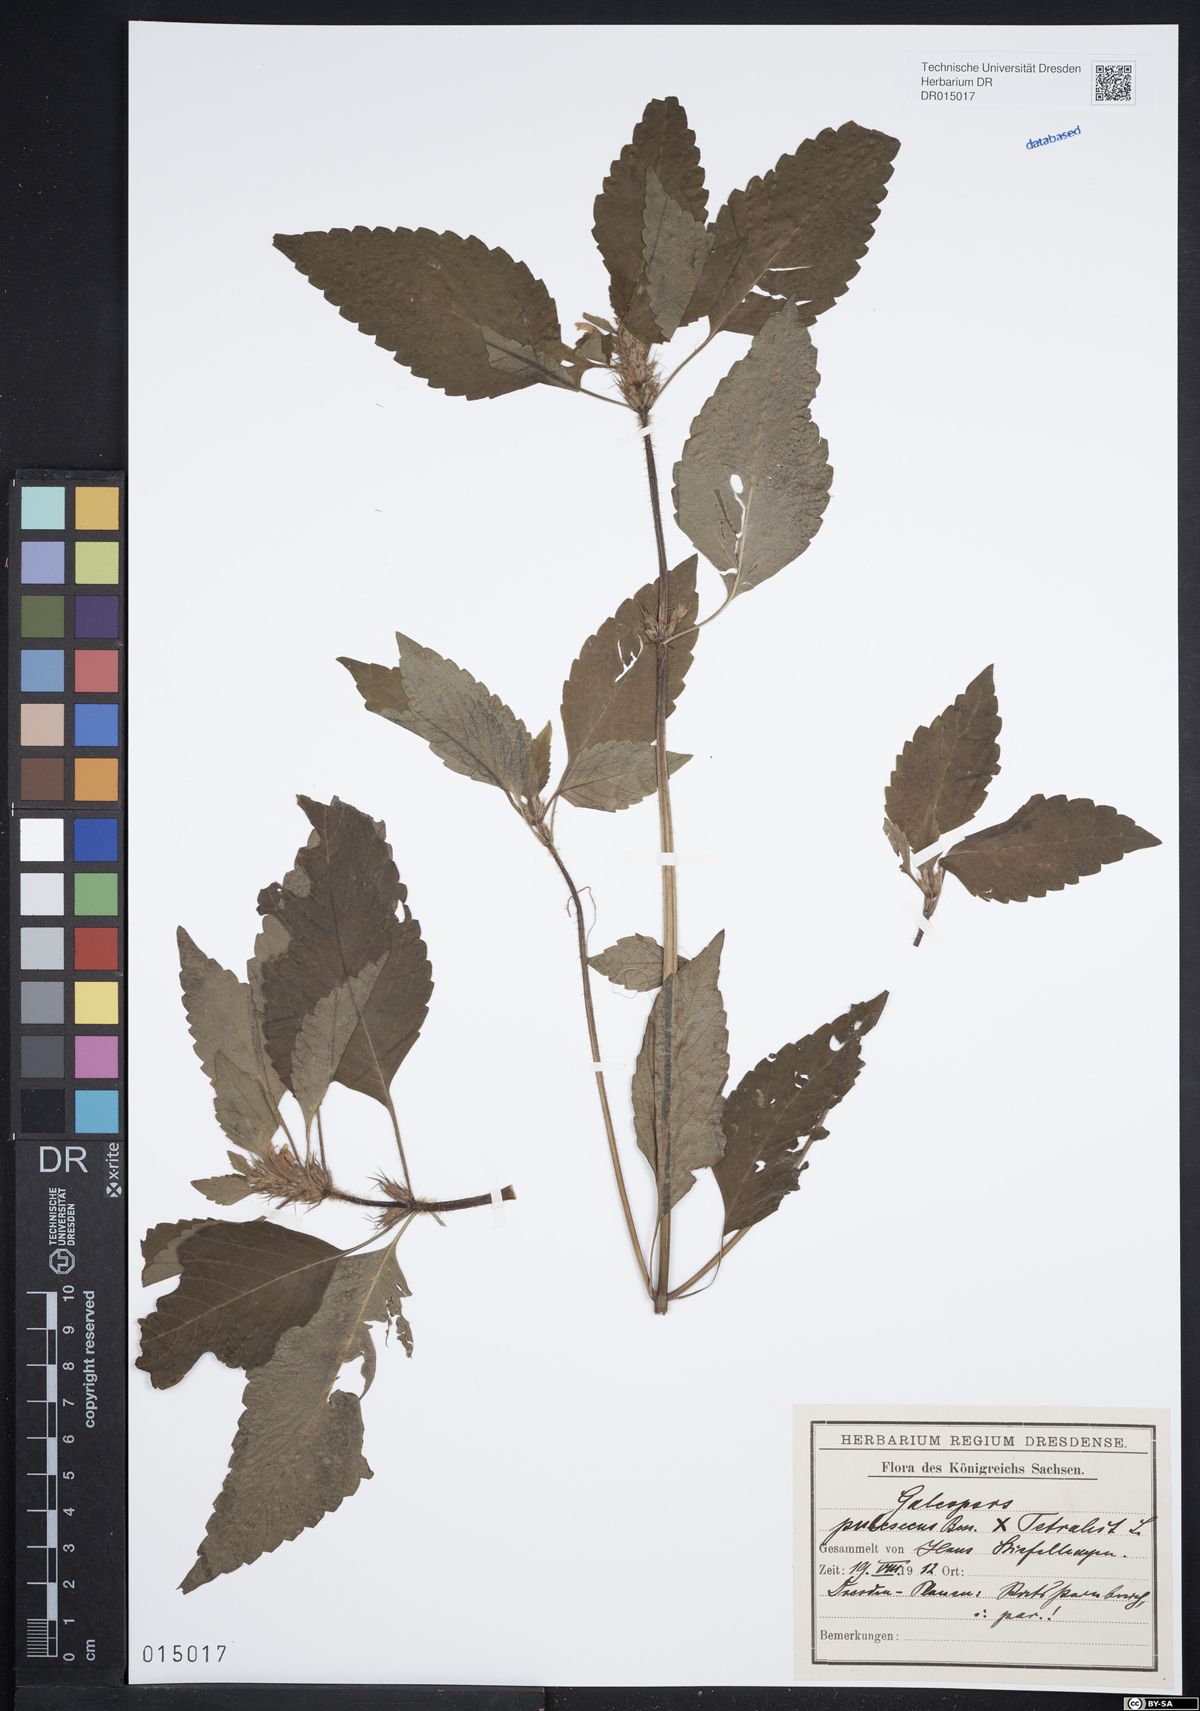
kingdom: Plantae
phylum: Tracheophyta
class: Magnoliopsida
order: Lamiales
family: Lamiaceae
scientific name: Lamiaceae
